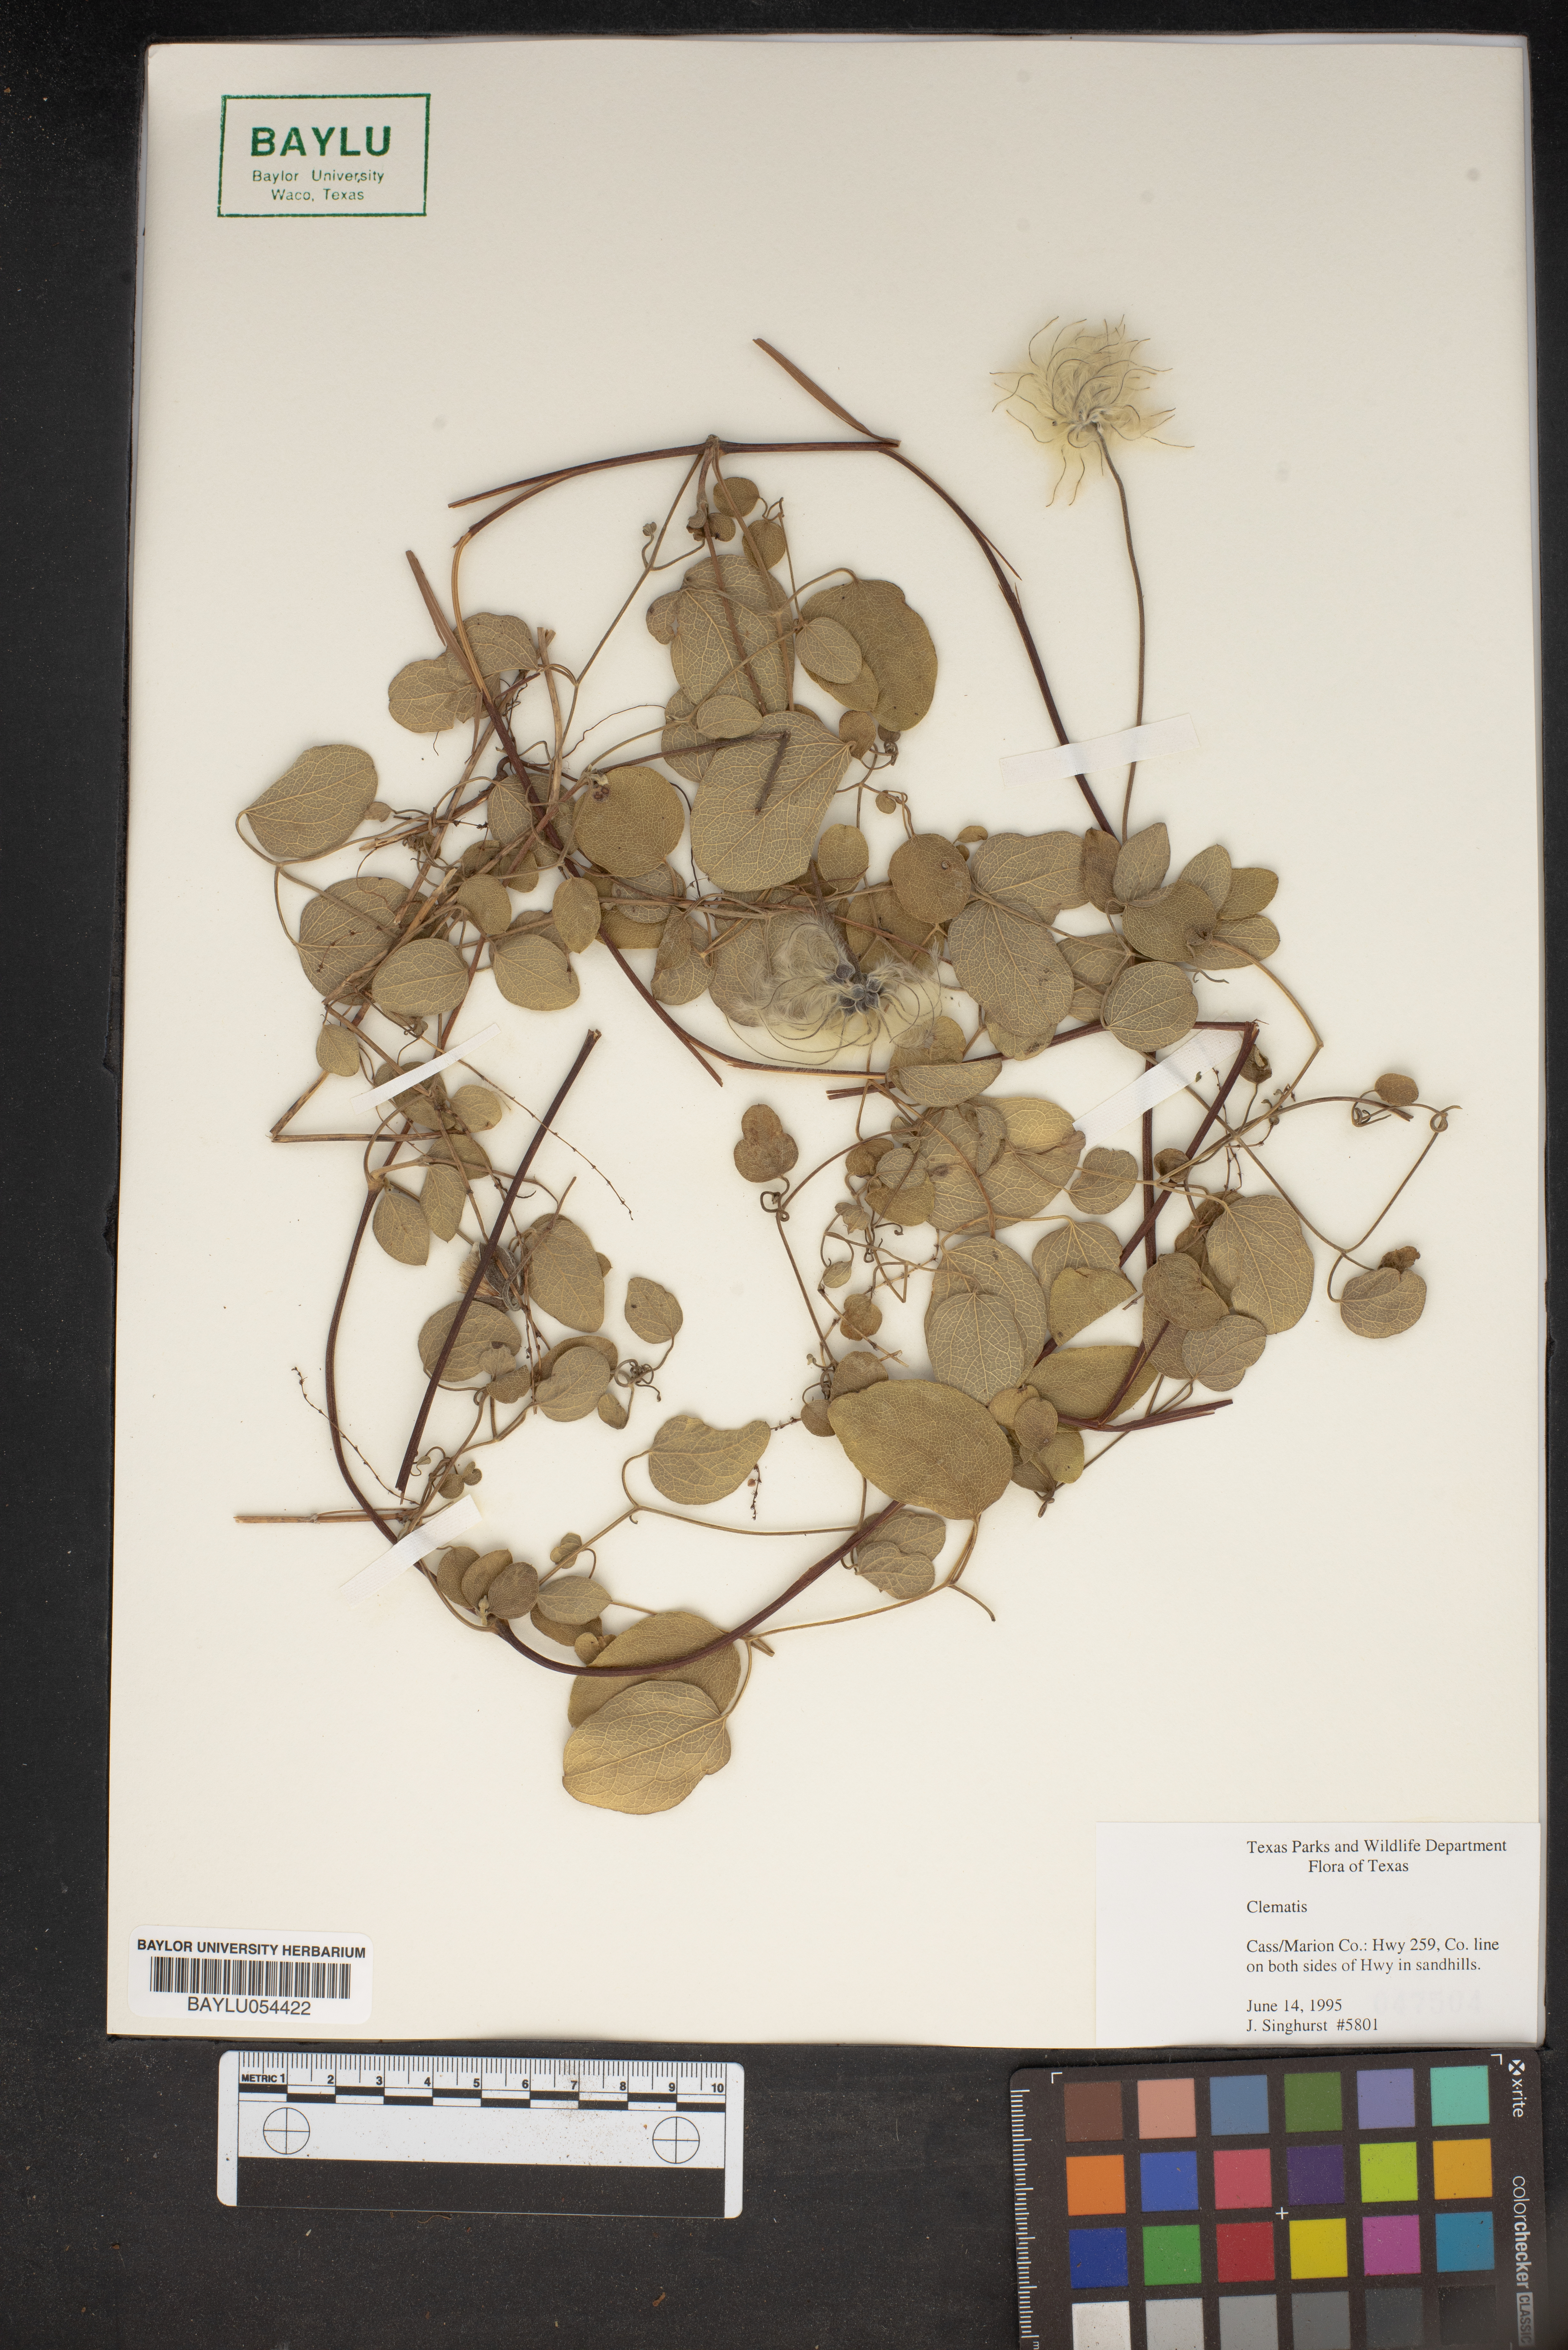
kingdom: Plantae
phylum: Tracheophyta
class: Magnoliopsida
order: Ranunculales
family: Ranunculaceae
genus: Clematis
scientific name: Clematis
